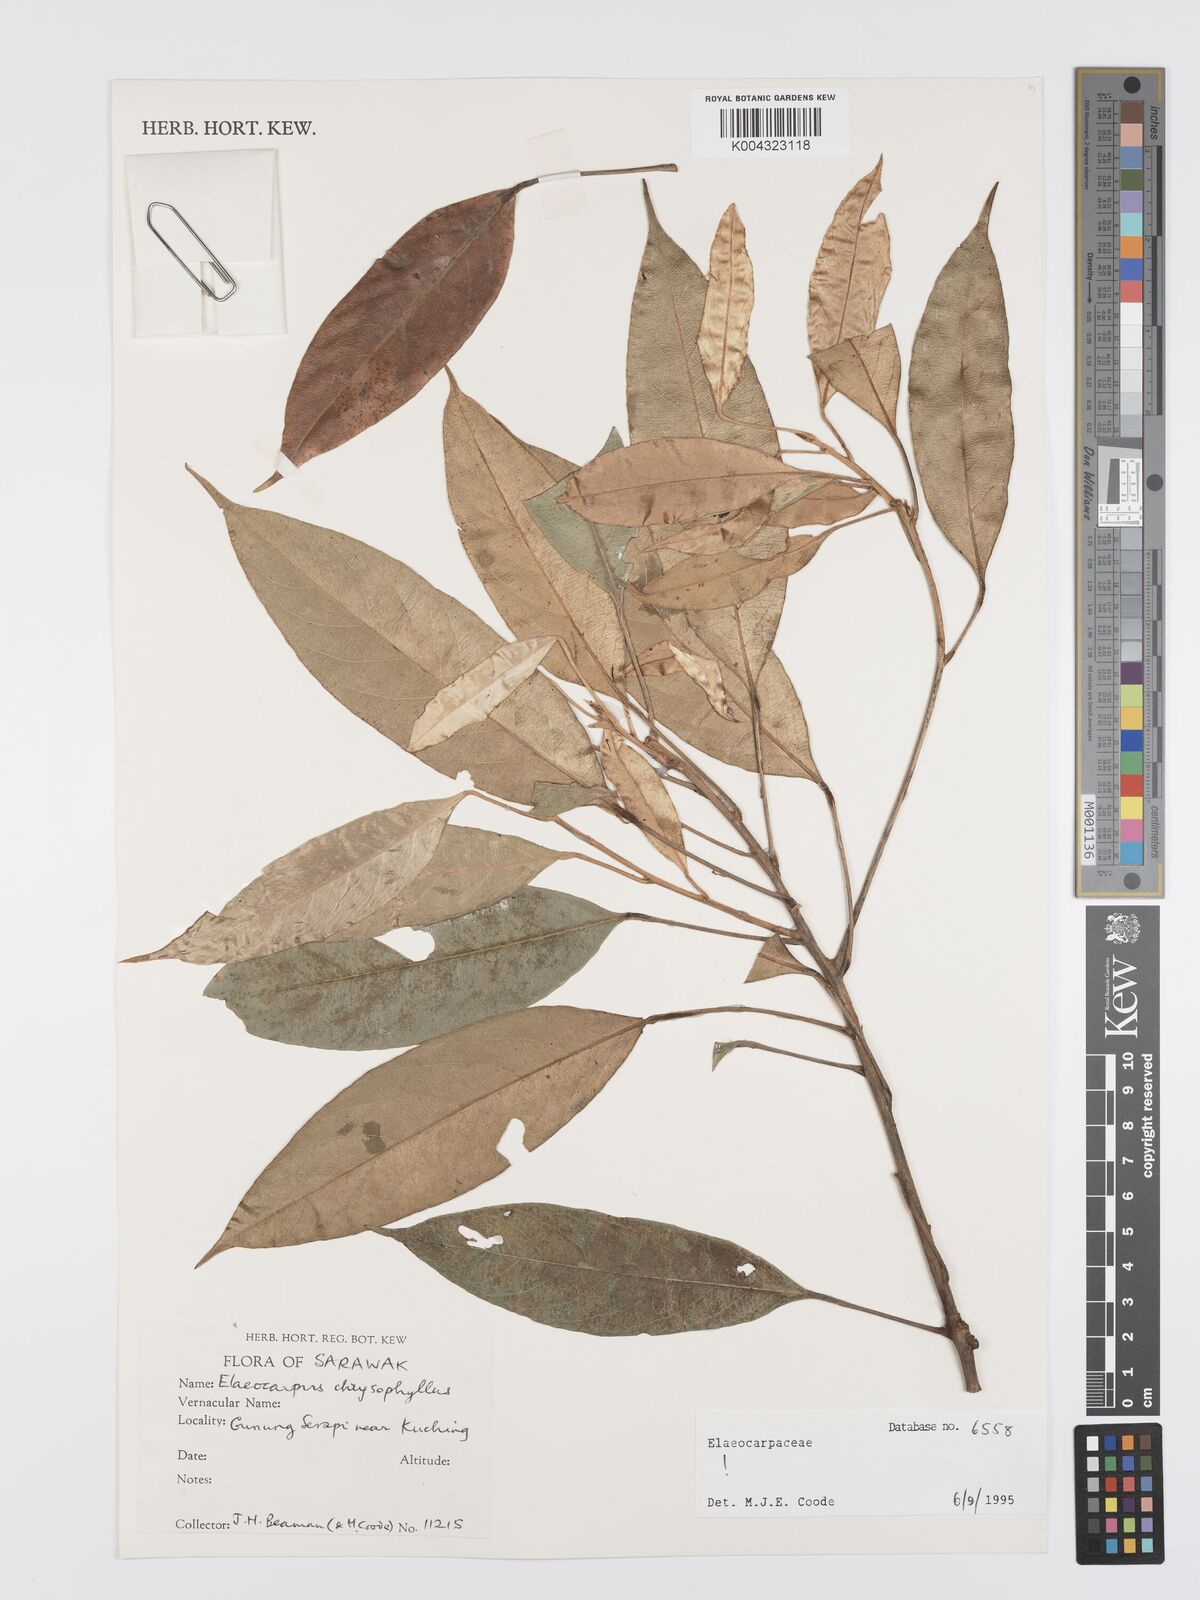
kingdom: Plantae
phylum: Tracheophyta
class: Magnoliopsida
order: Oxalidales
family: Elaeocarpaceae
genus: Elaeocarpus
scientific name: Elaeocarpus chrysophyllus
